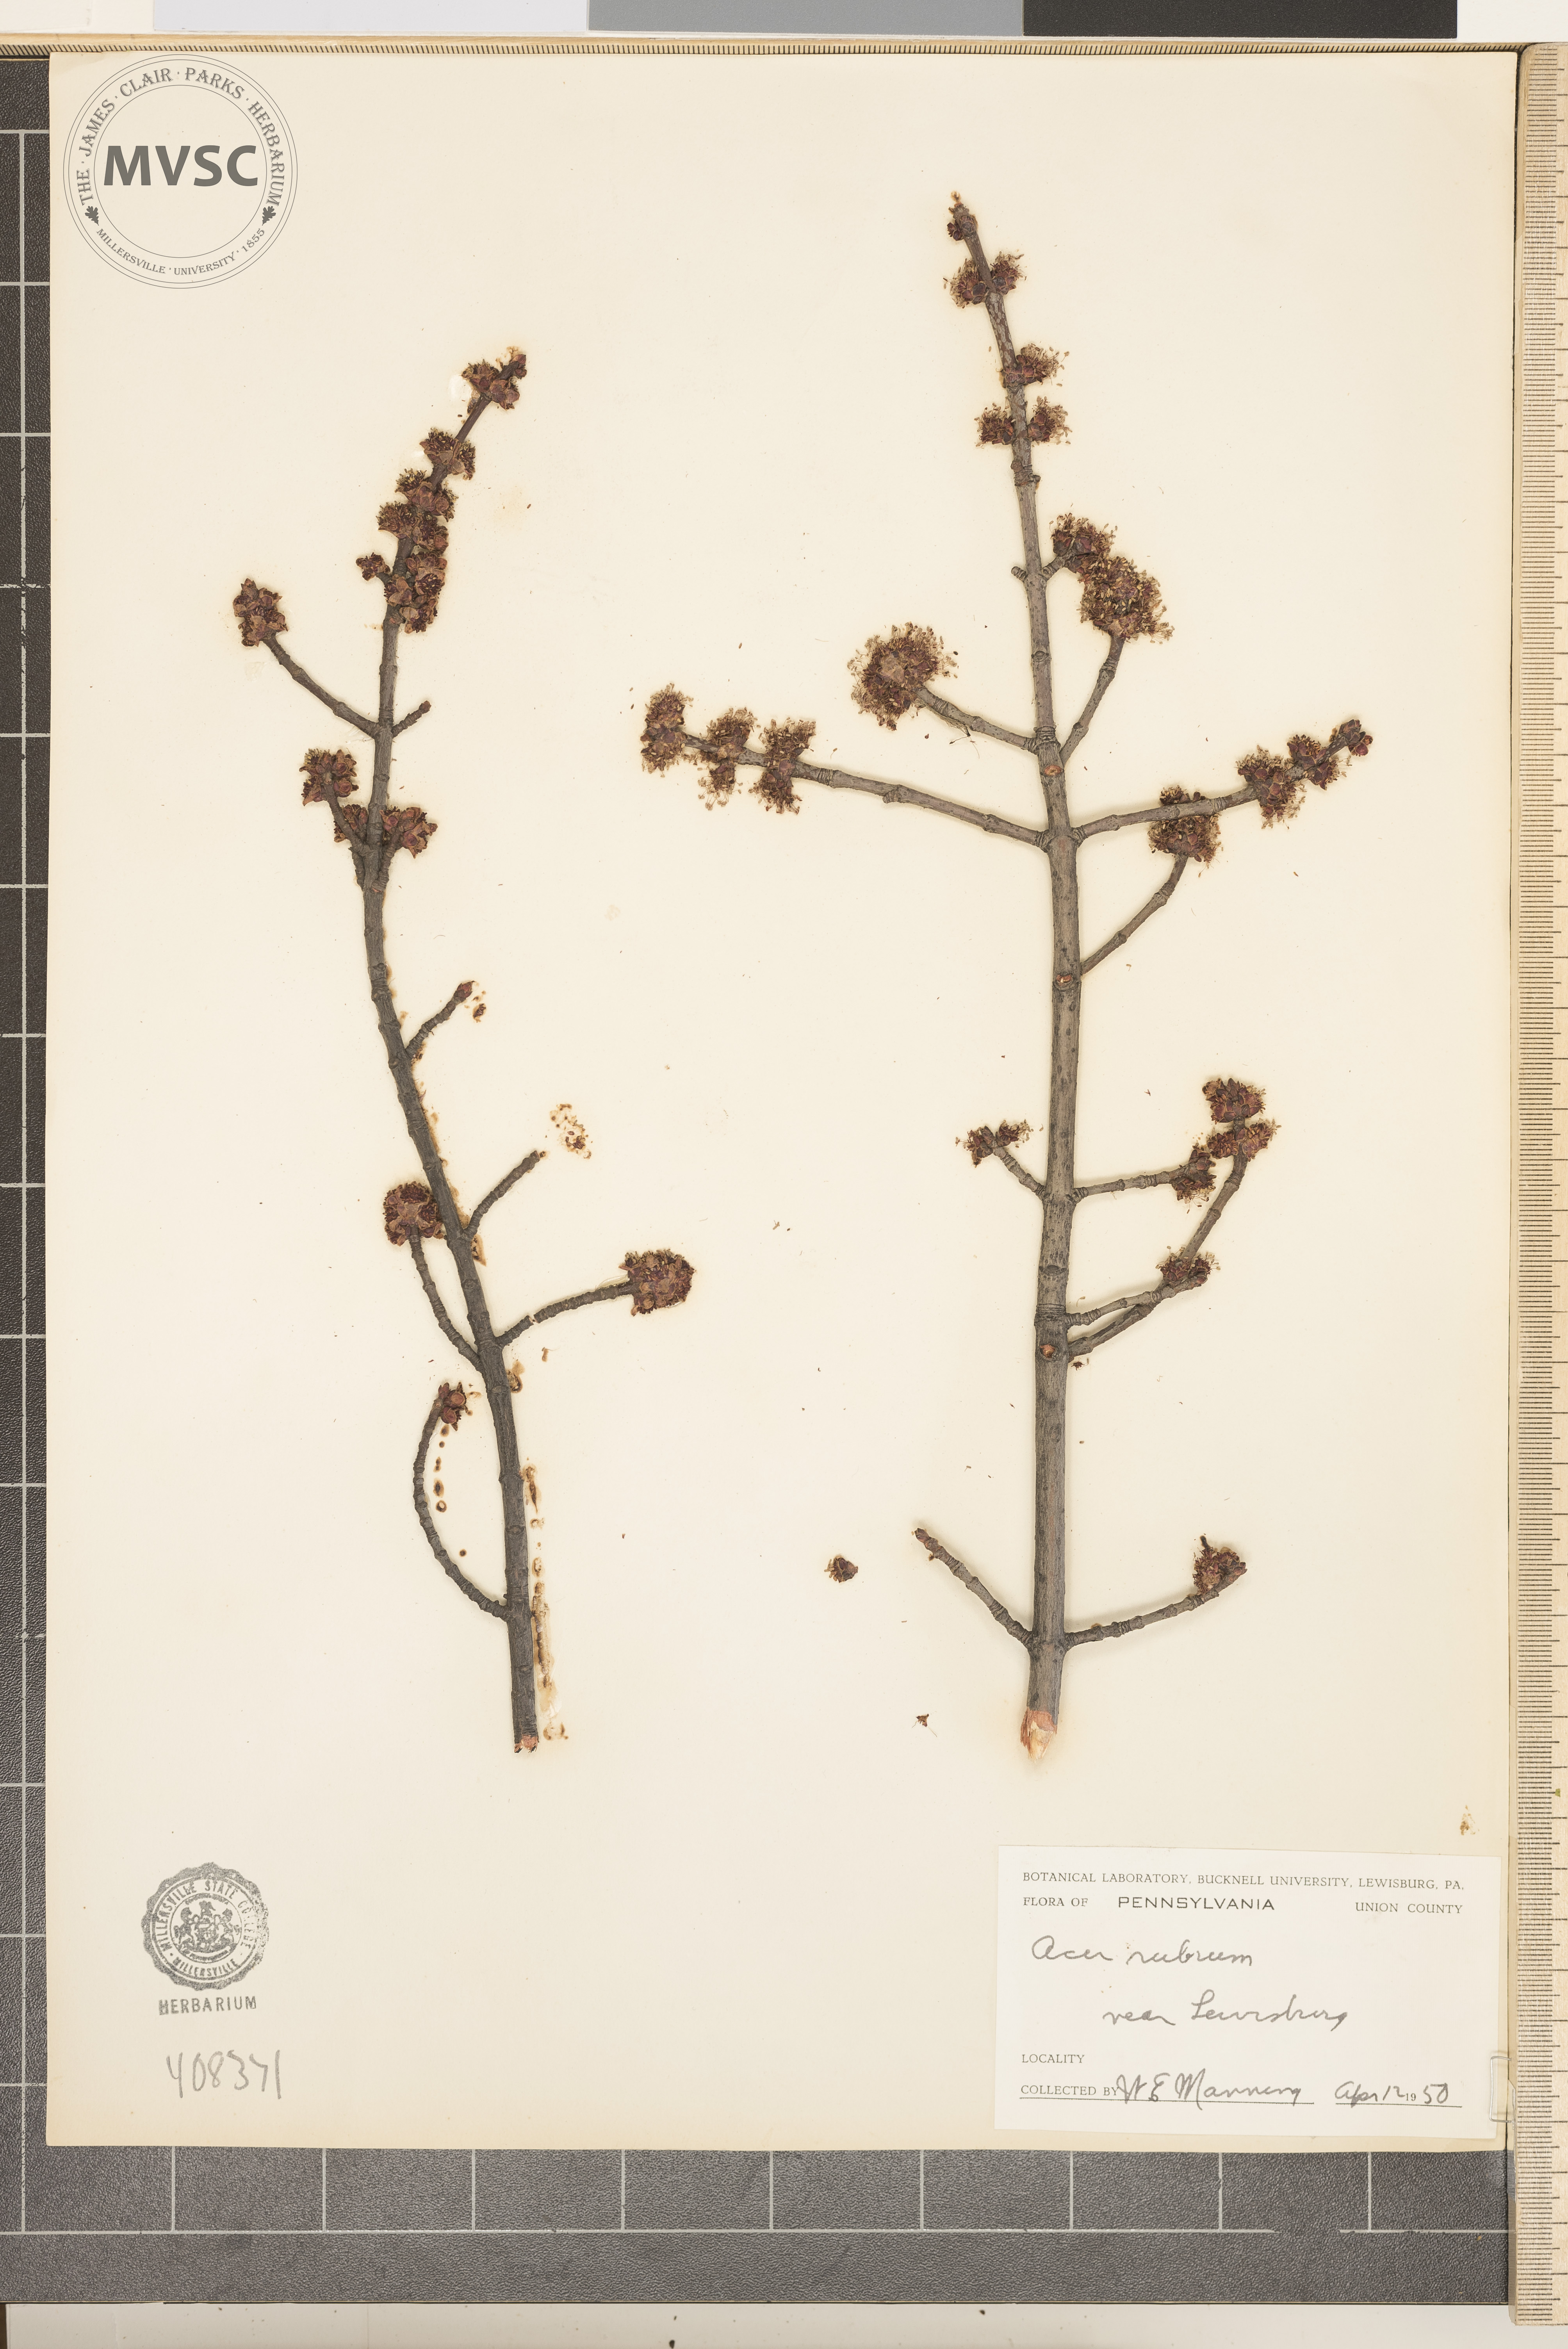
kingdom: Plantae
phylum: Tracheophyta
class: Magnoliopsida
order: Sapindales
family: Sapindaceae
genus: Acer
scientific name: Acer rubrum
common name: Red maple
